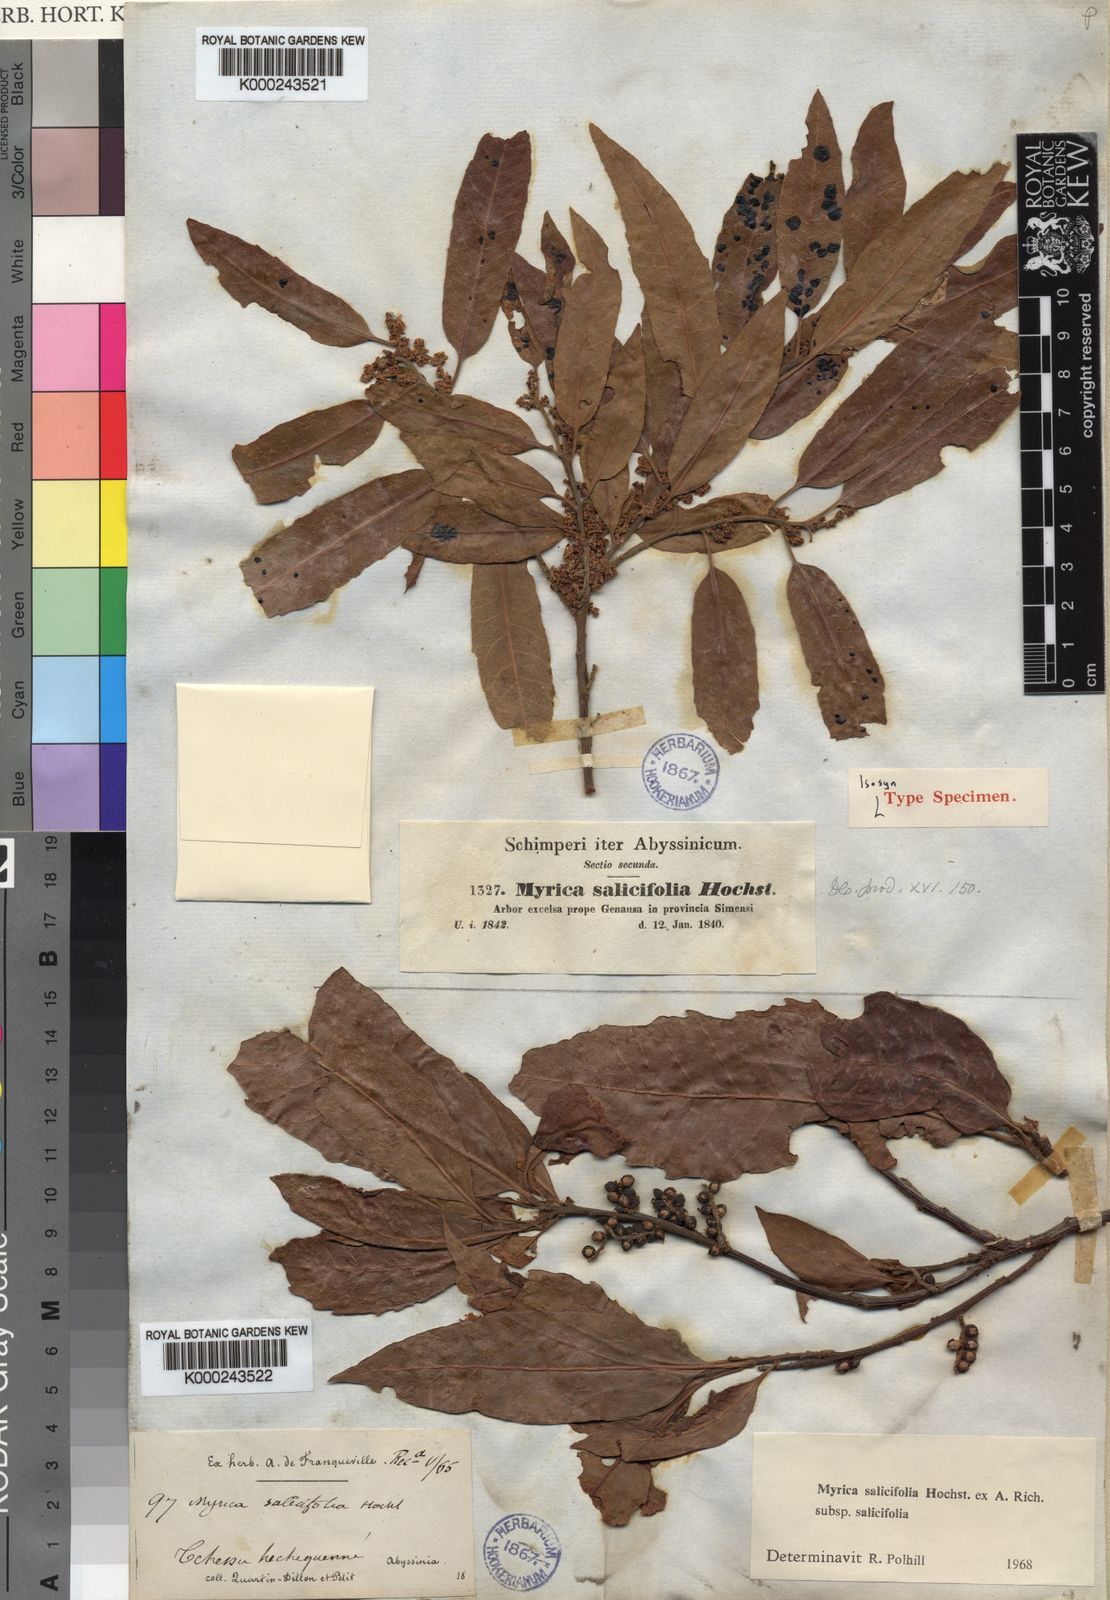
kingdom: Plantae
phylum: Tracheophyta
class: Magnoliopsida
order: Fagales
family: Myricaceae
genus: Morella
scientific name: Morella salicifolia
